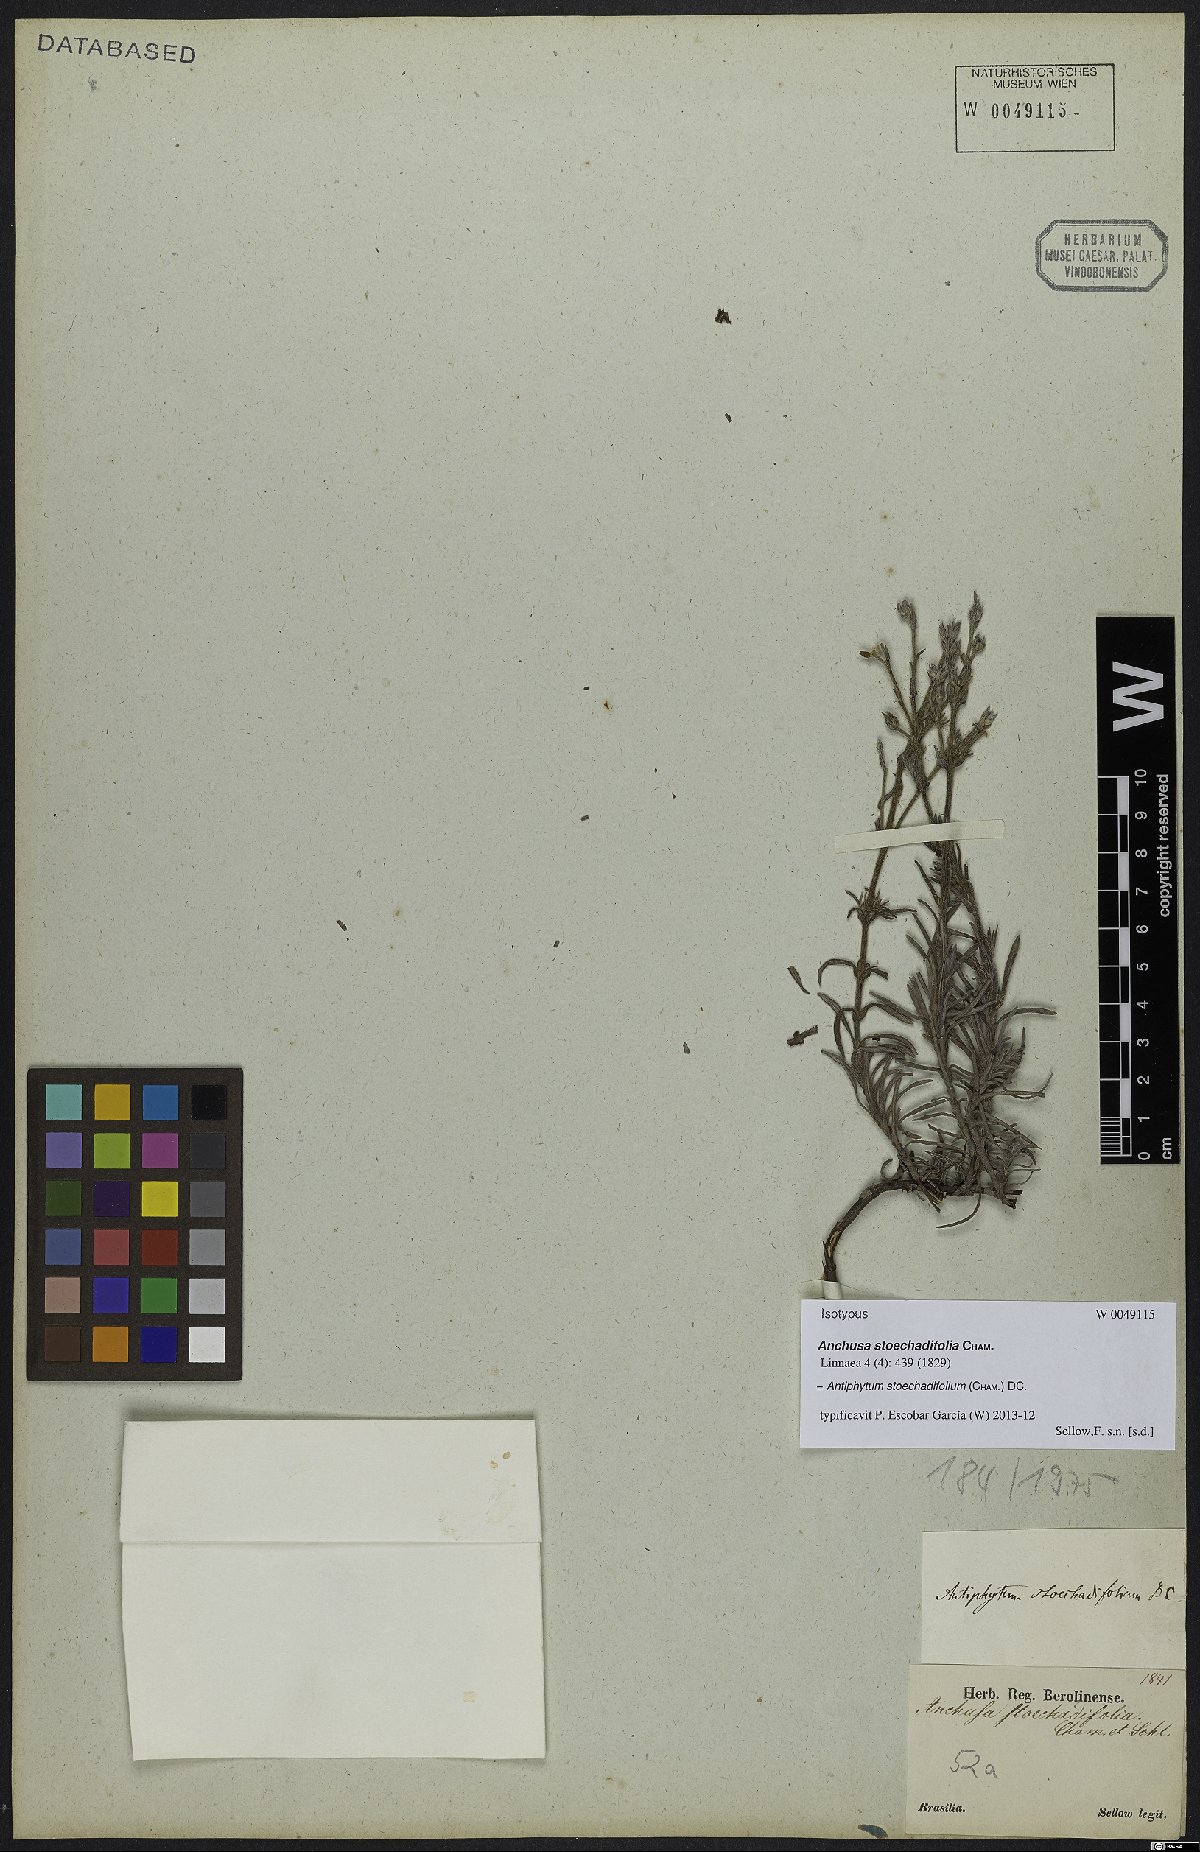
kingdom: Plantae
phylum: Tracheophyta
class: Magnoliopsida
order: Boraginales
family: Boraginaceae
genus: Antiphytum
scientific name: Antiphytum stoechadifolium
